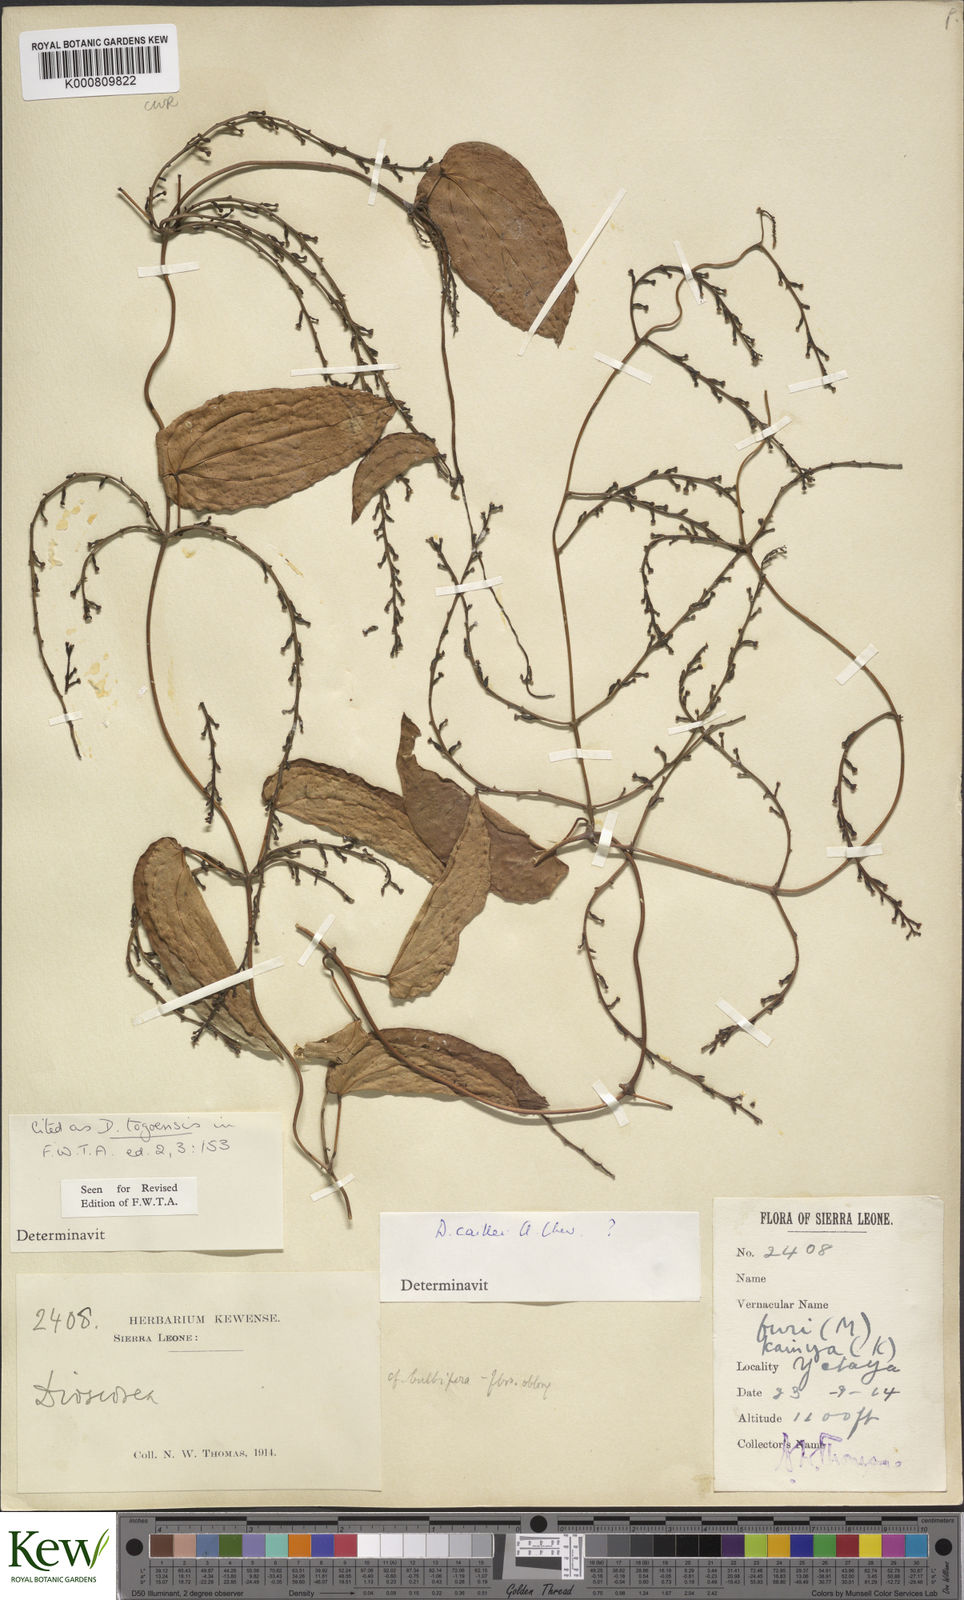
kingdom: Plantae
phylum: Tracheophyta
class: Liliopsida
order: Dioscoreales
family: Dioscoreaceae
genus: Dioscorea
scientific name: Dioscorea togoensis
